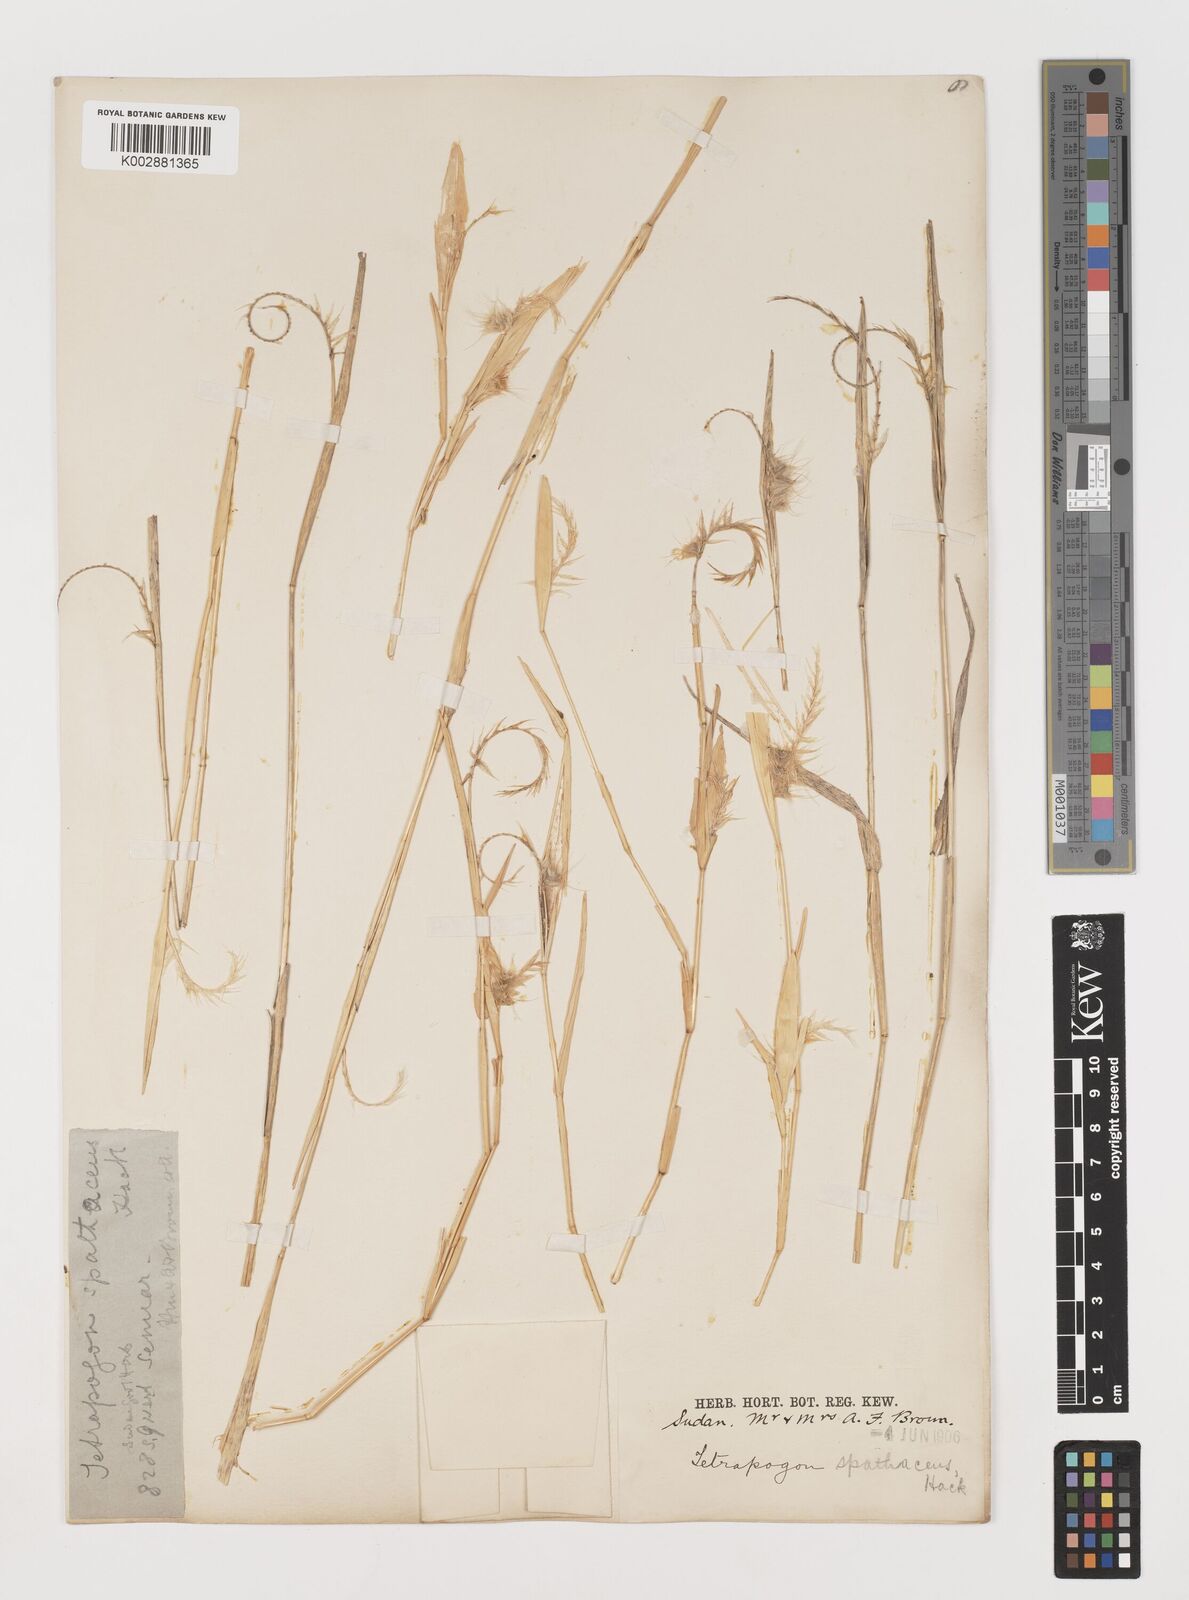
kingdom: Plantae
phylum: Tracheophyta
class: Liliopsida
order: Poales
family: Poaceae
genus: Tetrapogon
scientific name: Tetrapogon cenchriformis
